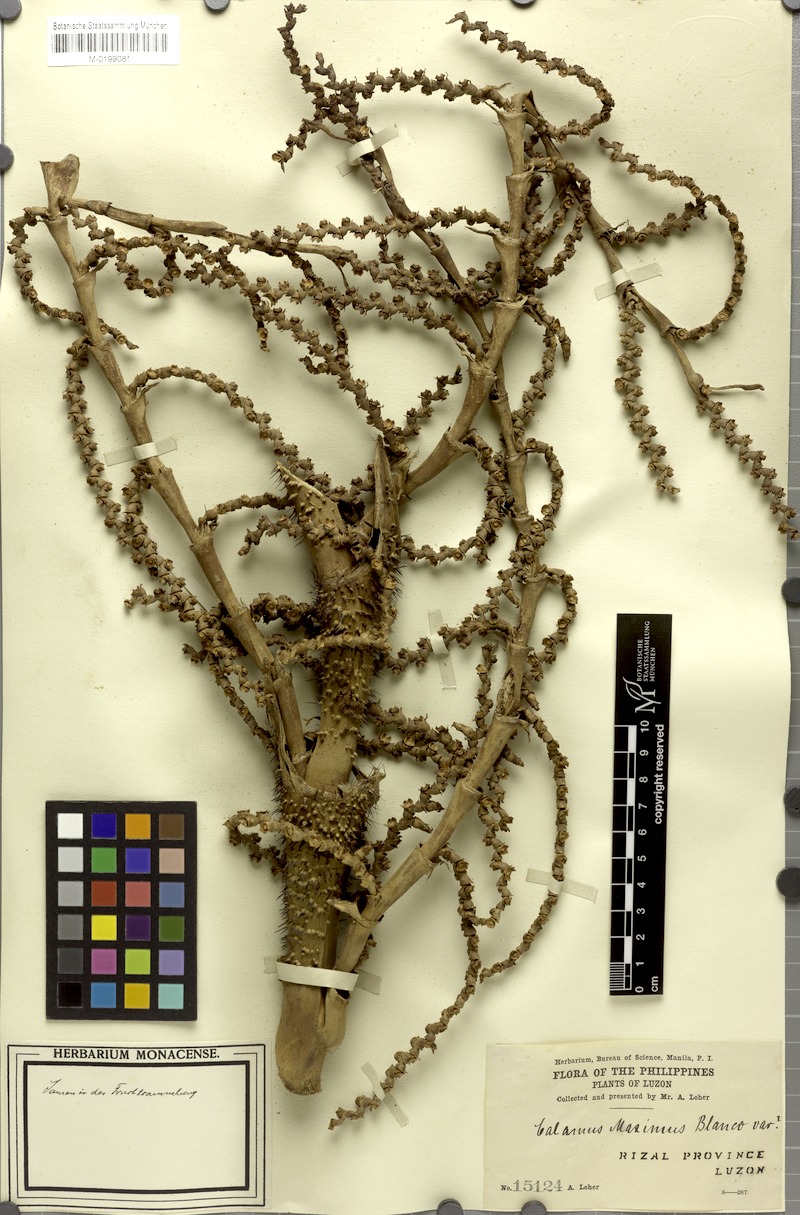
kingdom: Plantae
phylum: Tracheophyta
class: Liliopsida
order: Arecales
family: Arecaceae
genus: Calamus
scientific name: Calamus moseleyanus
